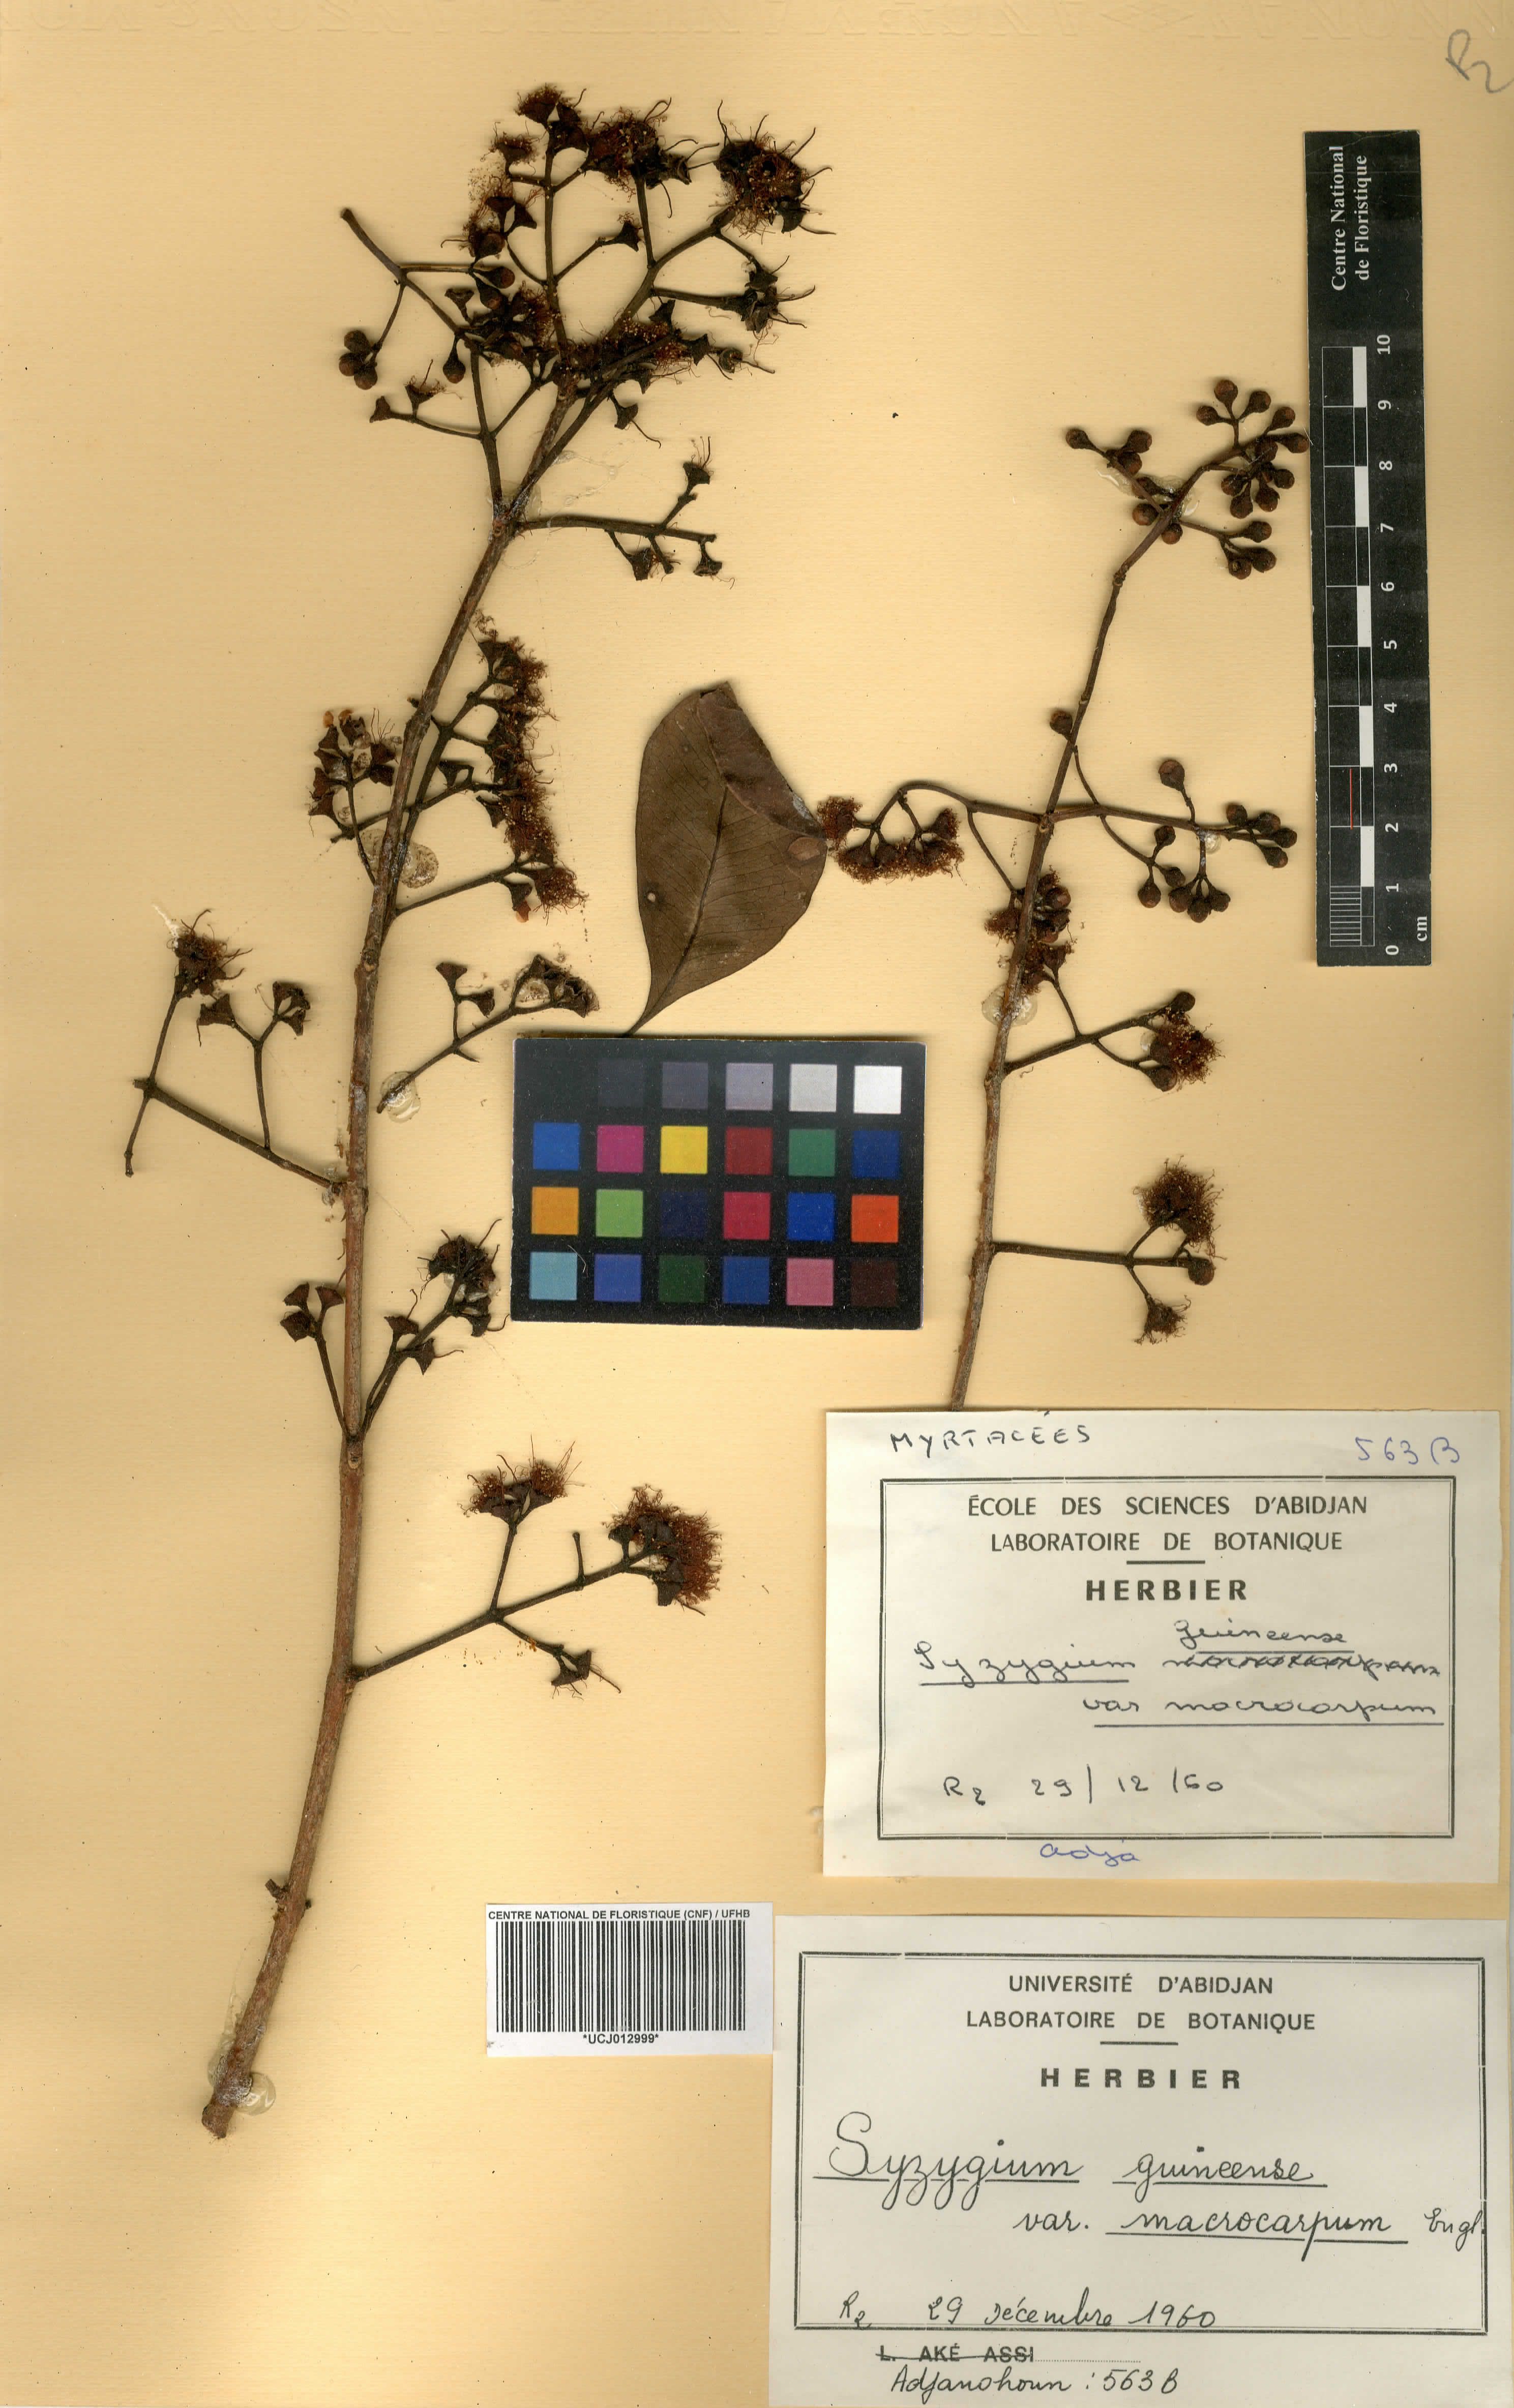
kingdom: Plantae
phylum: Tracheophyta
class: Magnoliopsida
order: Myrtales
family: Myrtaceae
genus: Syzygium
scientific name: Syzygium guineense
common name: Water-pear
